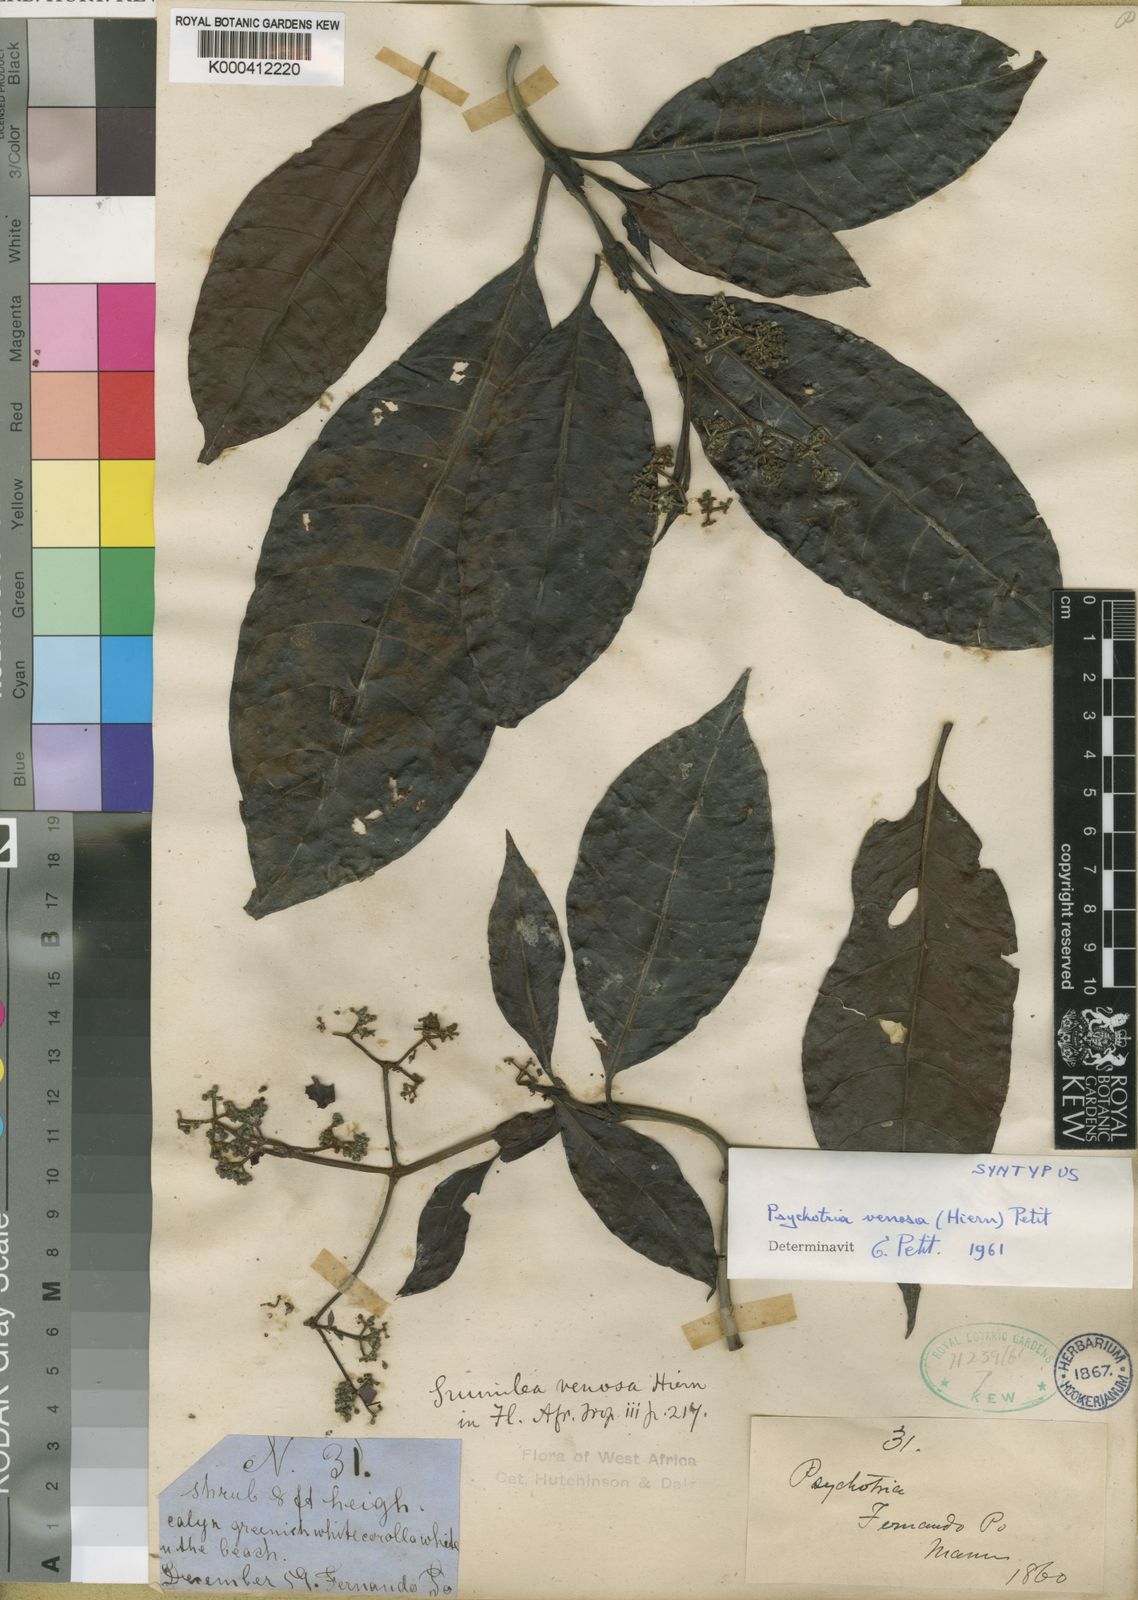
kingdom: Plantae
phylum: Tracheophyta
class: Magnoliopsida
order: Gentianales
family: Rubiaceae
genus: Psychotria
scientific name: Psychotria venosa
